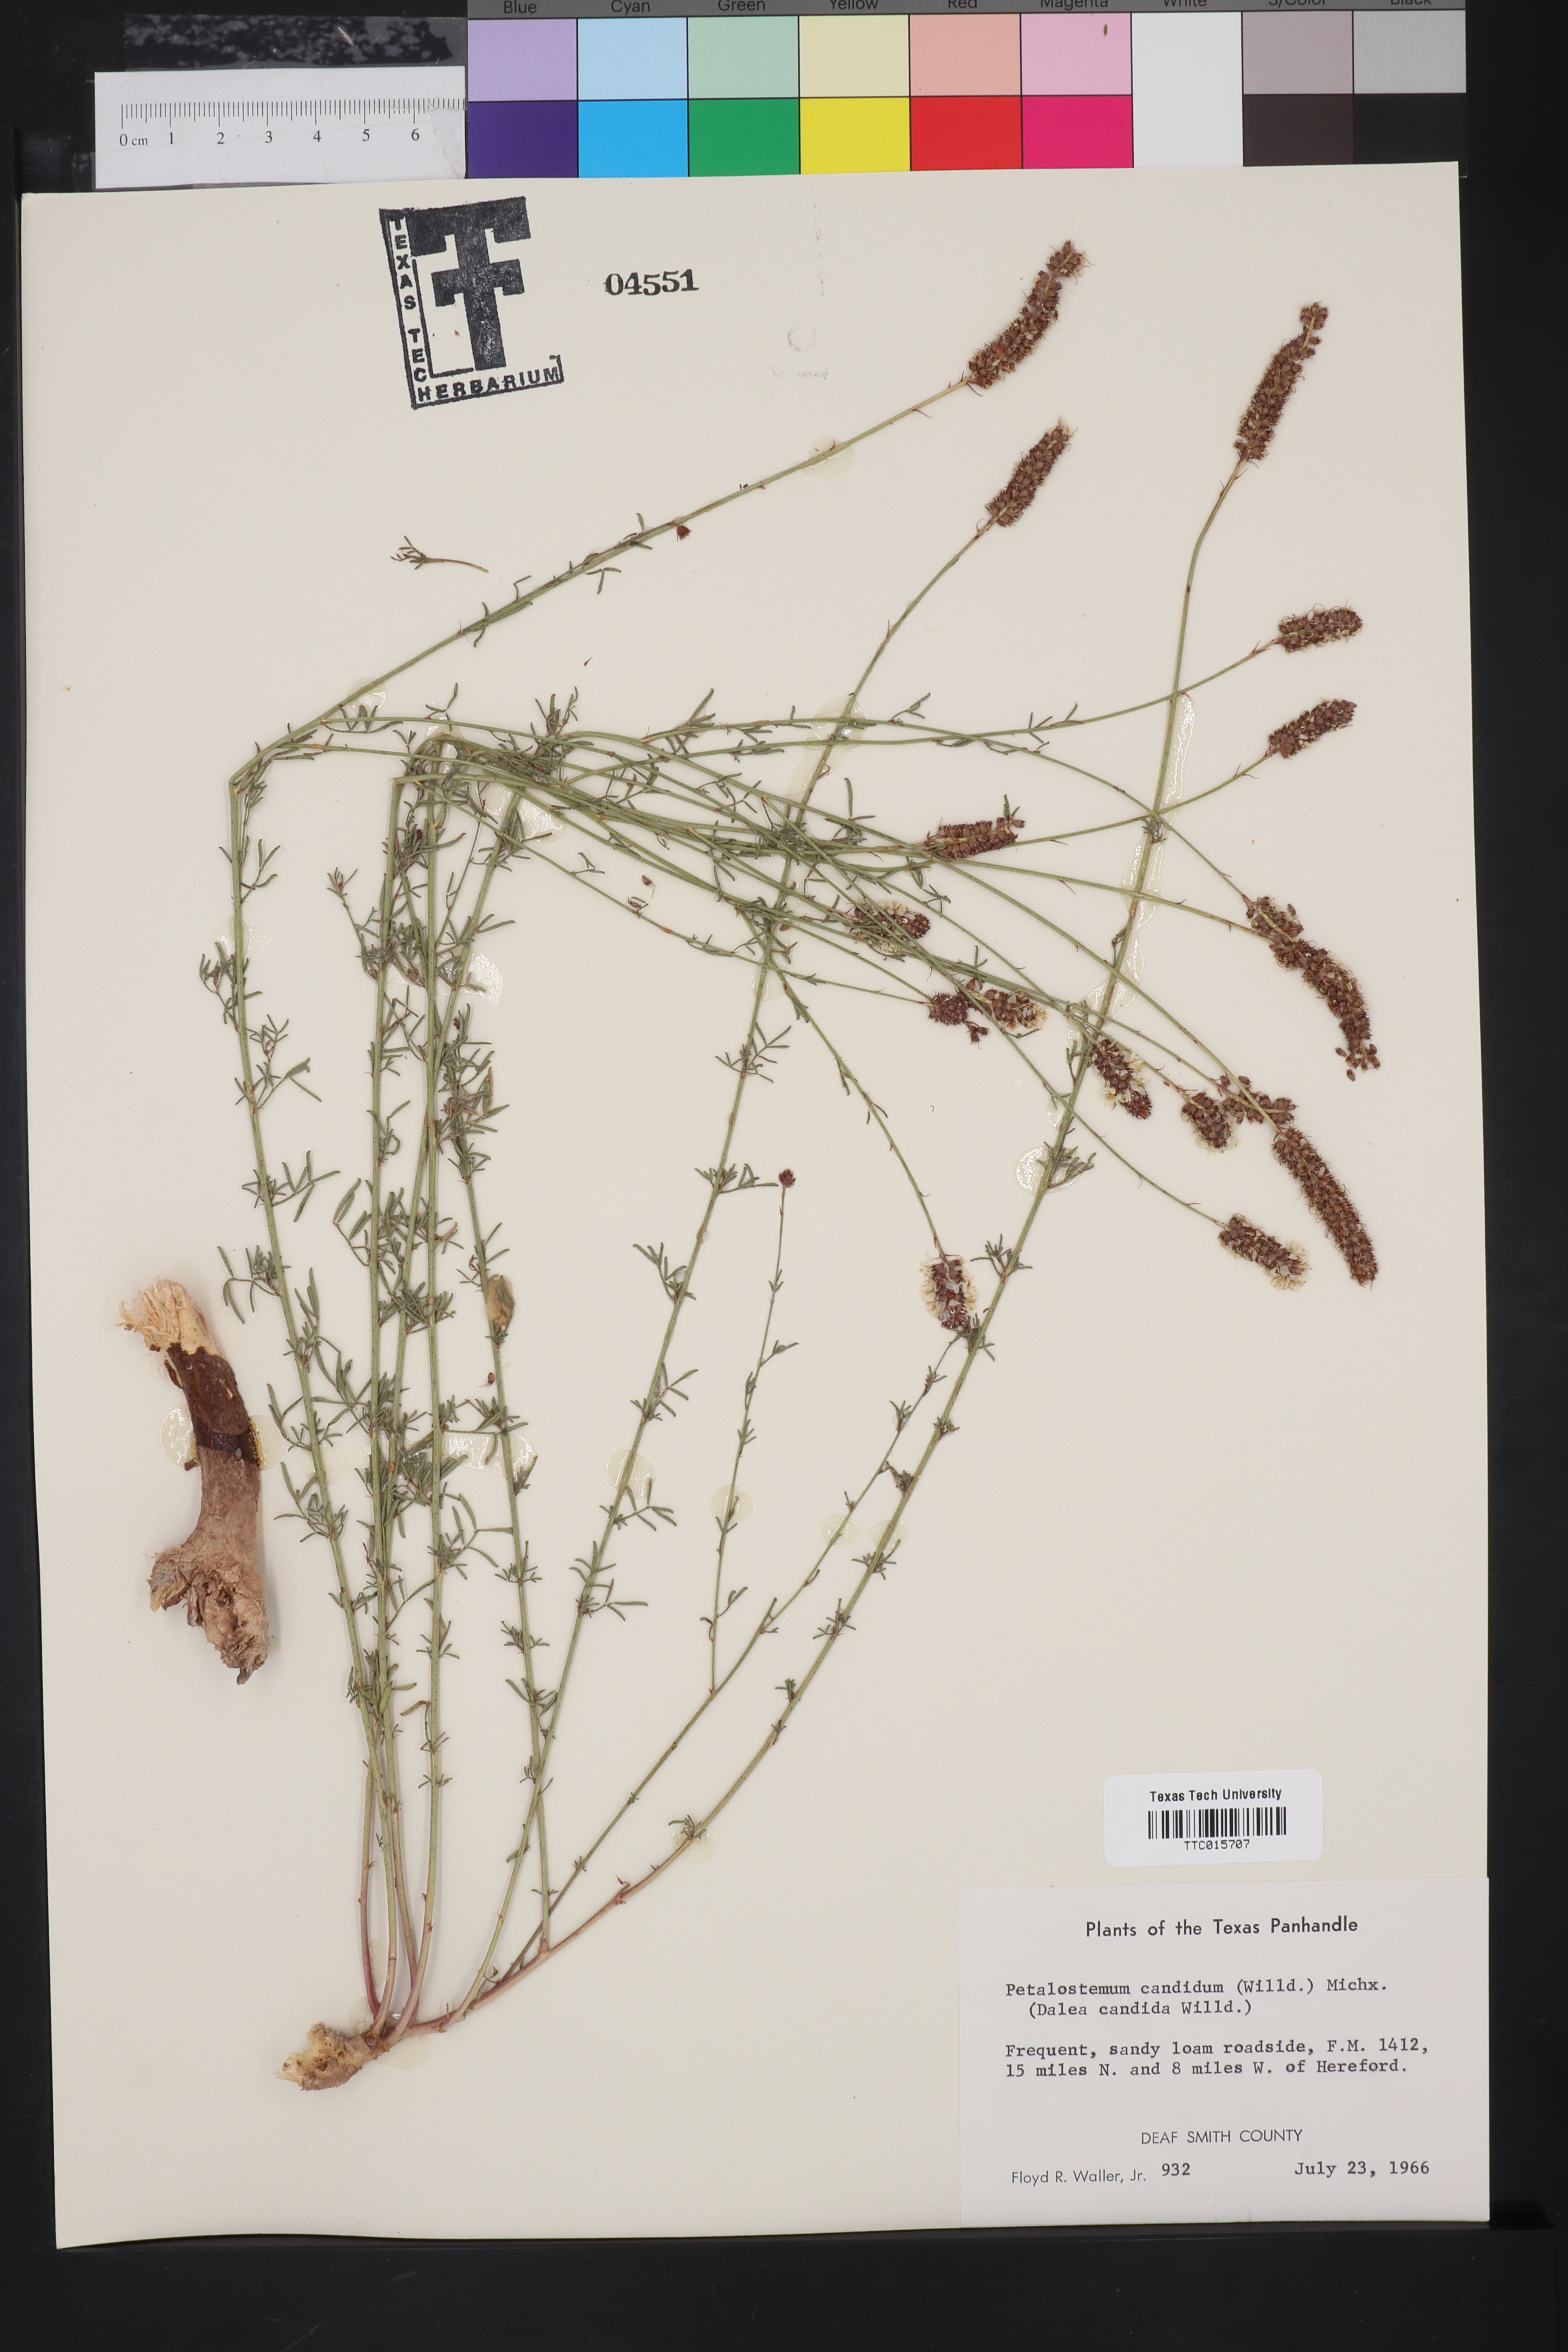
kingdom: Plantae
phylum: Tracheophyta
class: Magnoliopsida
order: Fabales
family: Fabaceae
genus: Petalostemum
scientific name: Petalostemum
